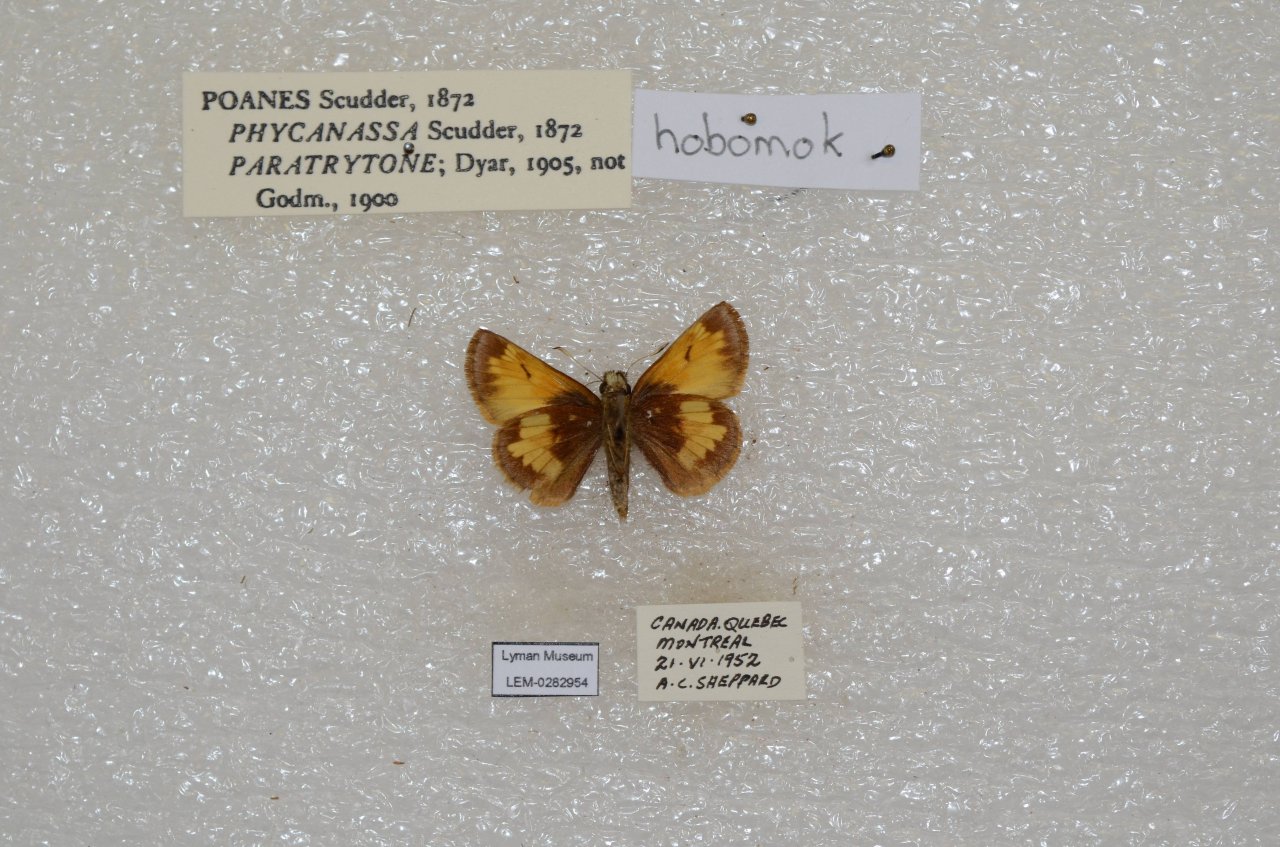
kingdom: Animalia
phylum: Arthropoda
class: Insecta
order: Lepidoptera
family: Hesperiidae
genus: Lon
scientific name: Lon hobomok
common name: Hobomok Skipper
